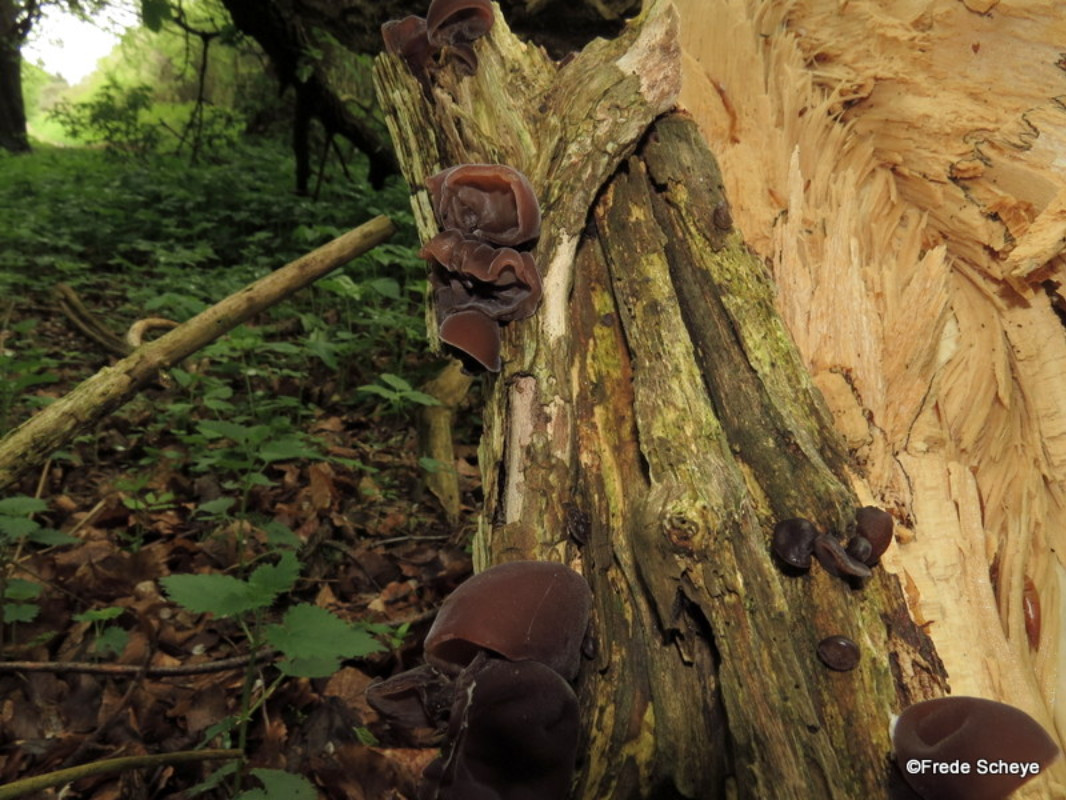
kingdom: Fungi
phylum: Basidiomycota
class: Agaricomycetes
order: Auriculariales
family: Auriculariaceae
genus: Auricularia
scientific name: Auricularia auricula-judae
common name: almindelig judasøre
